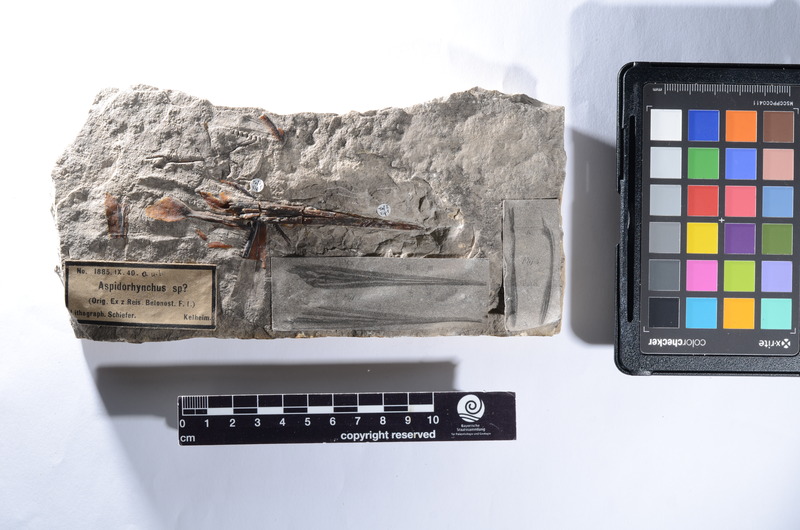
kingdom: Animalia
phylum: Chordata
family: Aspidorhynchidae
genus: Aspidorhynchus
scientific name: Aspidorhynchus
